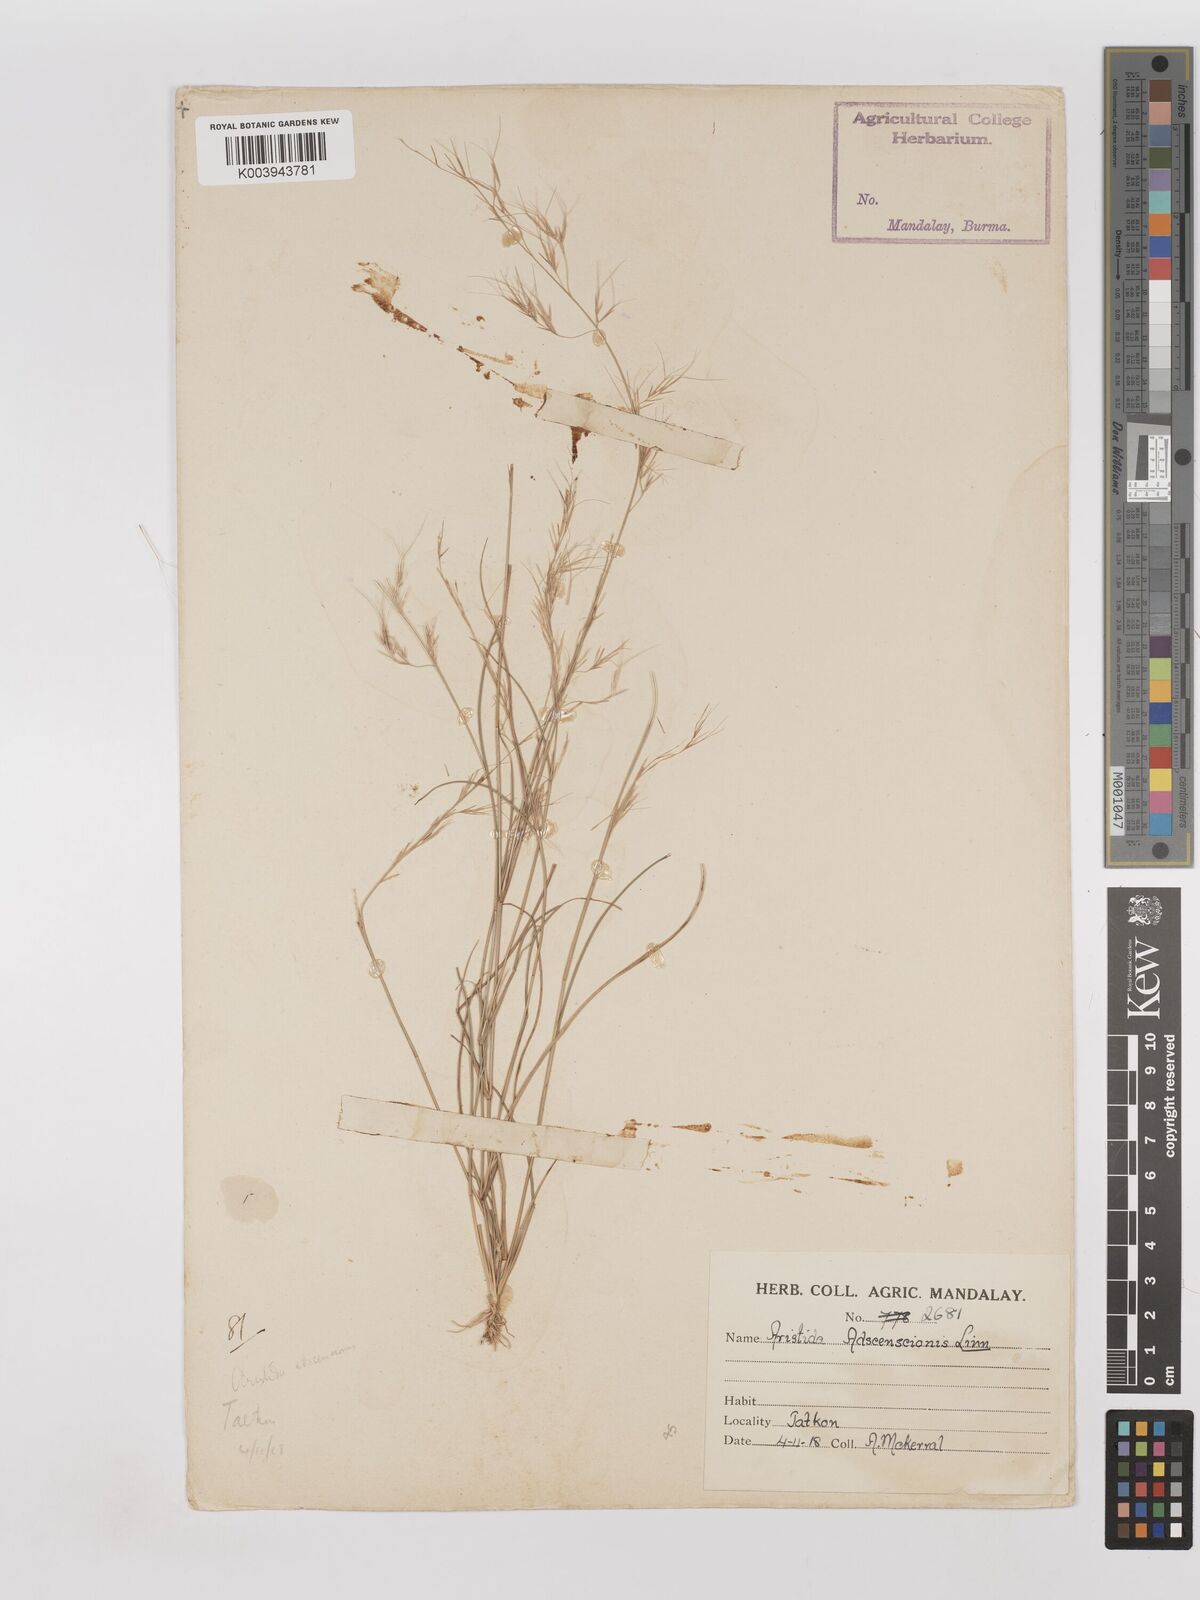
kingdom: Plantae
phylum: Tracheophyta
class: Liliopsida
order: Poales
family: Poaceae
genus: Aristida
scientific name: Aristida adscensionis
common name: Sixweeks threeawn
